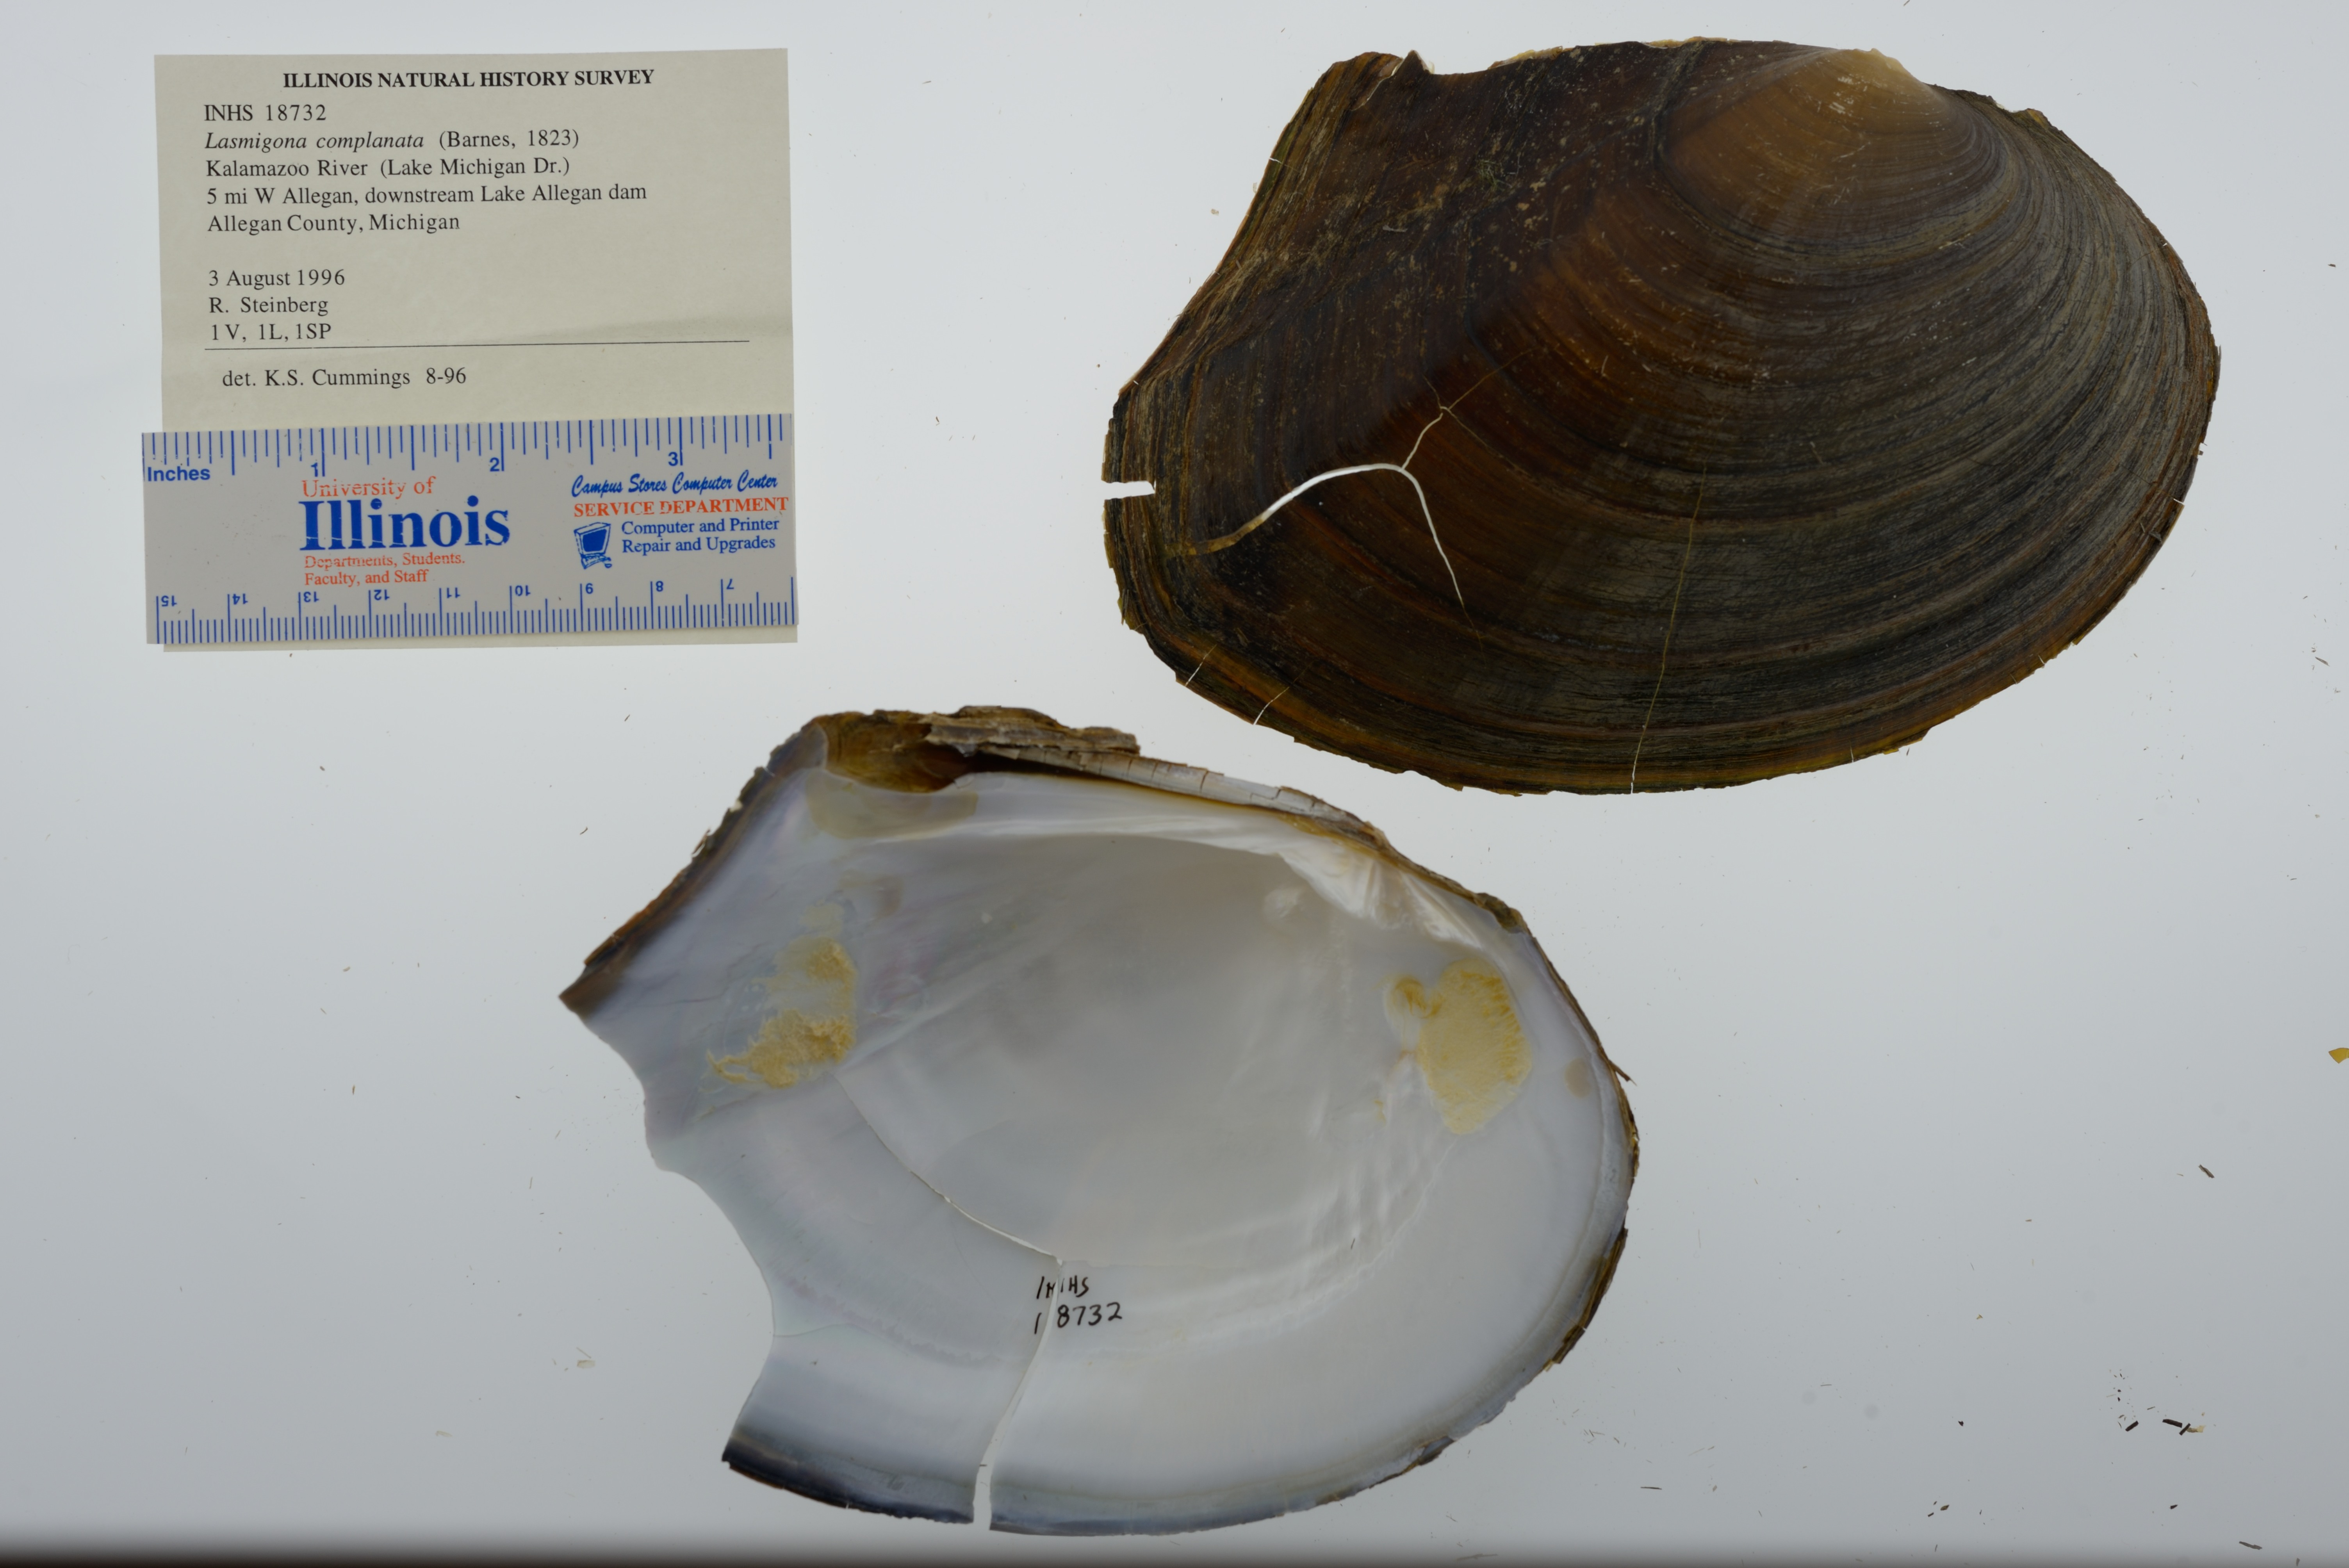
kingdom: Animalia
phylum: Mollusca
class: Bivalvia
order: Unionida
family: Unionidae
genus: Lasmigona
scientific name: Lasmigona complanata
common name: White heelsplitter
